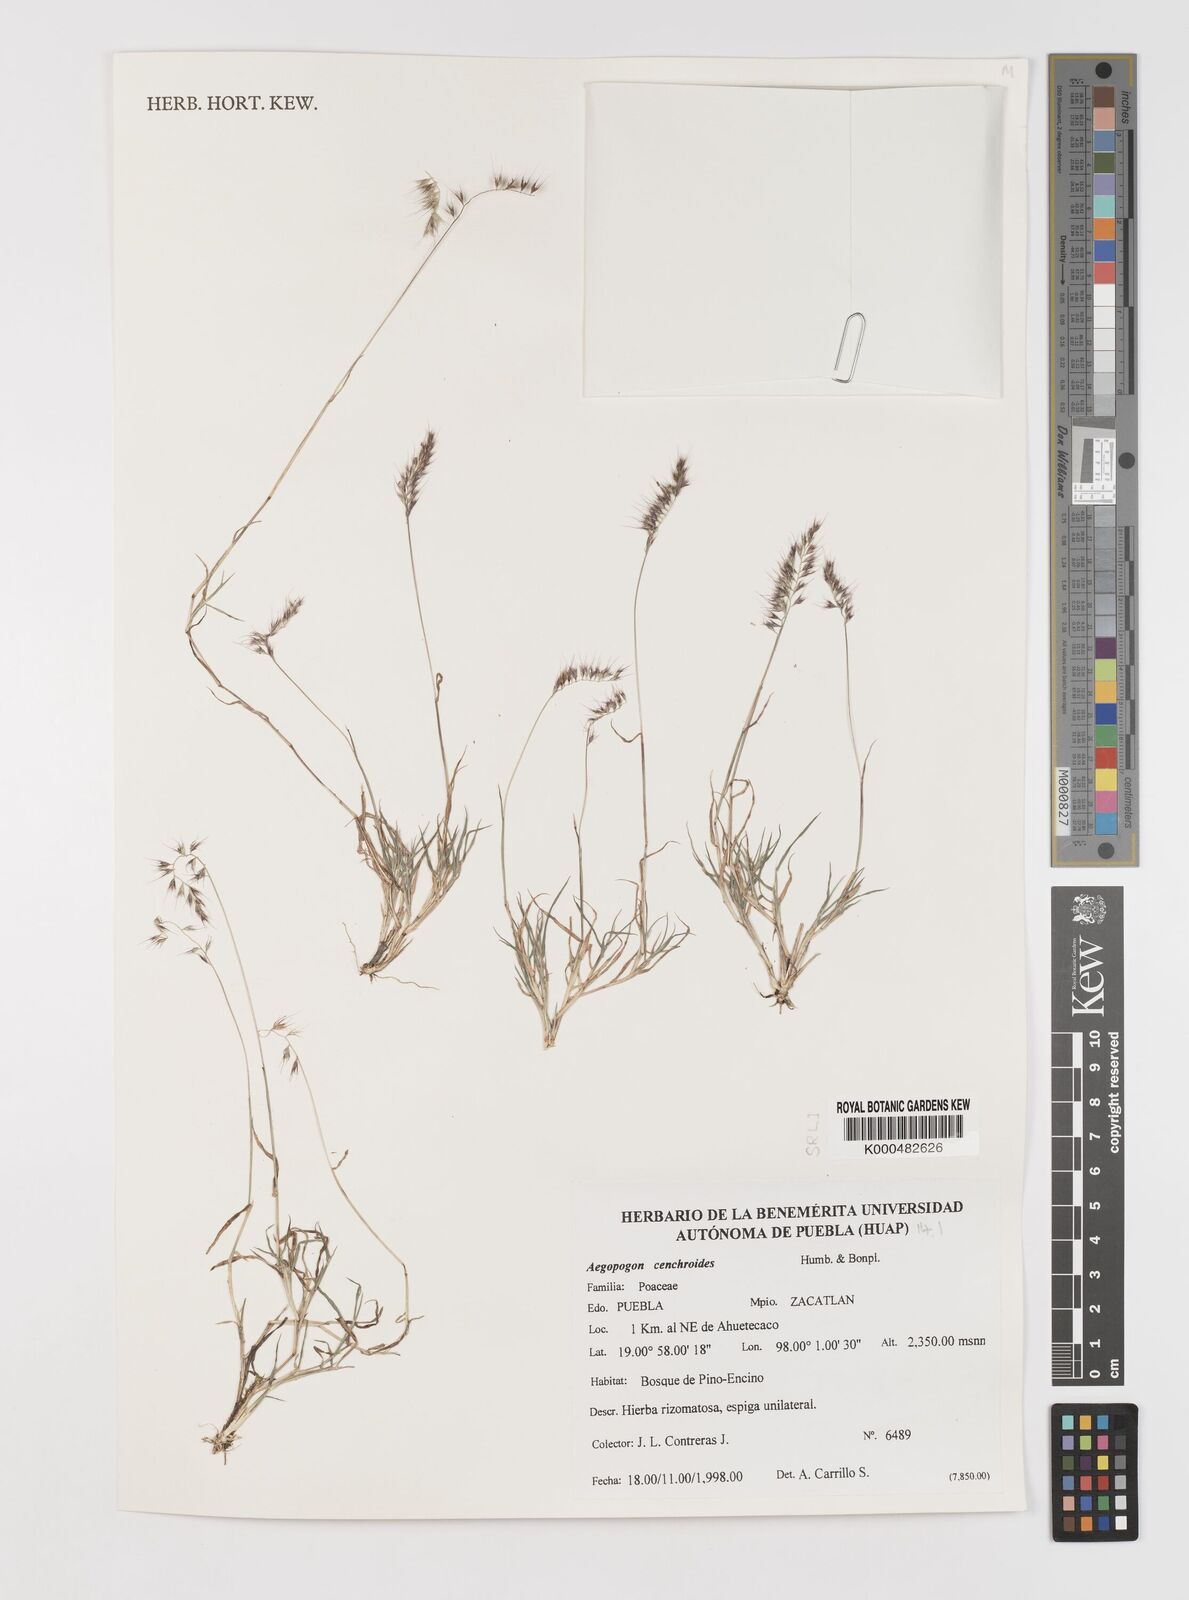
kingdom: Plantae
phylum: Tracheophyta
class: Liliopsida
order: Poales
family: Poaceae
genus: Muhlenbergia
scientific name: Muhlenbergia
